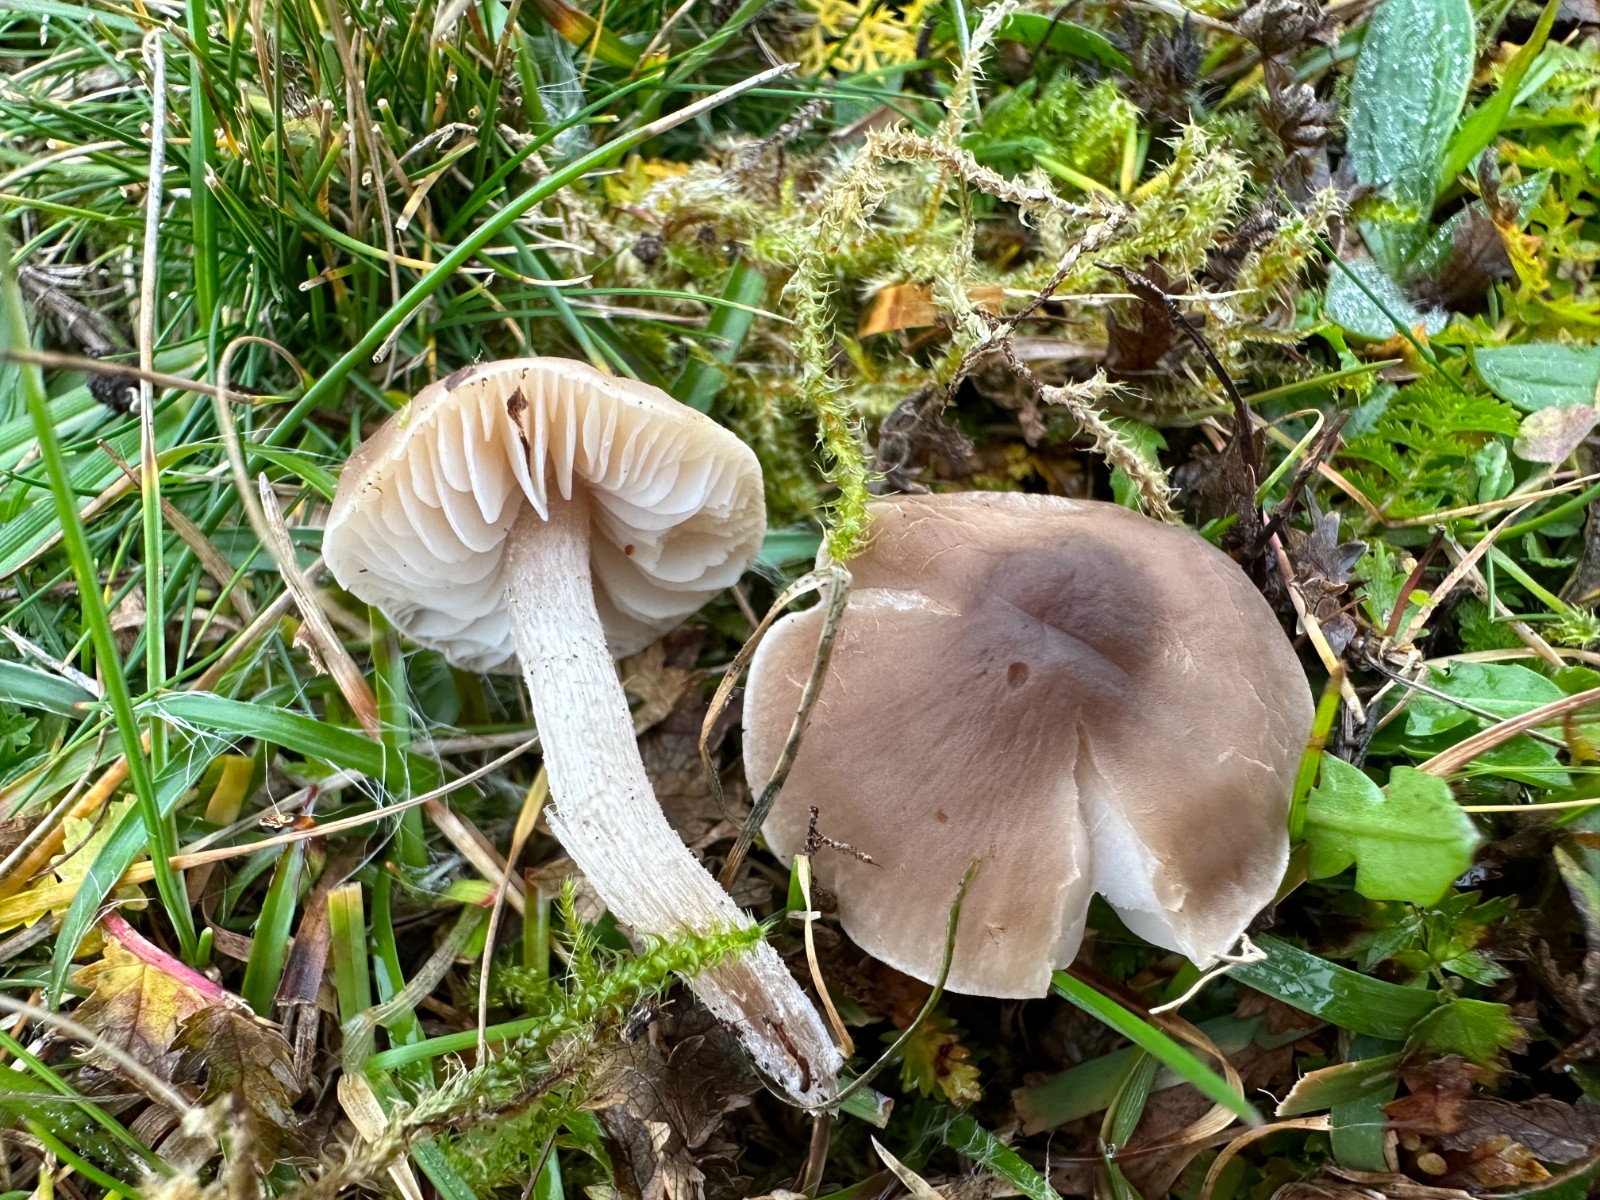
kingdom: Fungi
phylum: Basidiomycota
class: Agaricomycetes
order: Agaricales
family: Tricholomataceae
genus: Dermoloma
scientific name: Dermoloma cuneifolium
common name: eng-nonnehat
